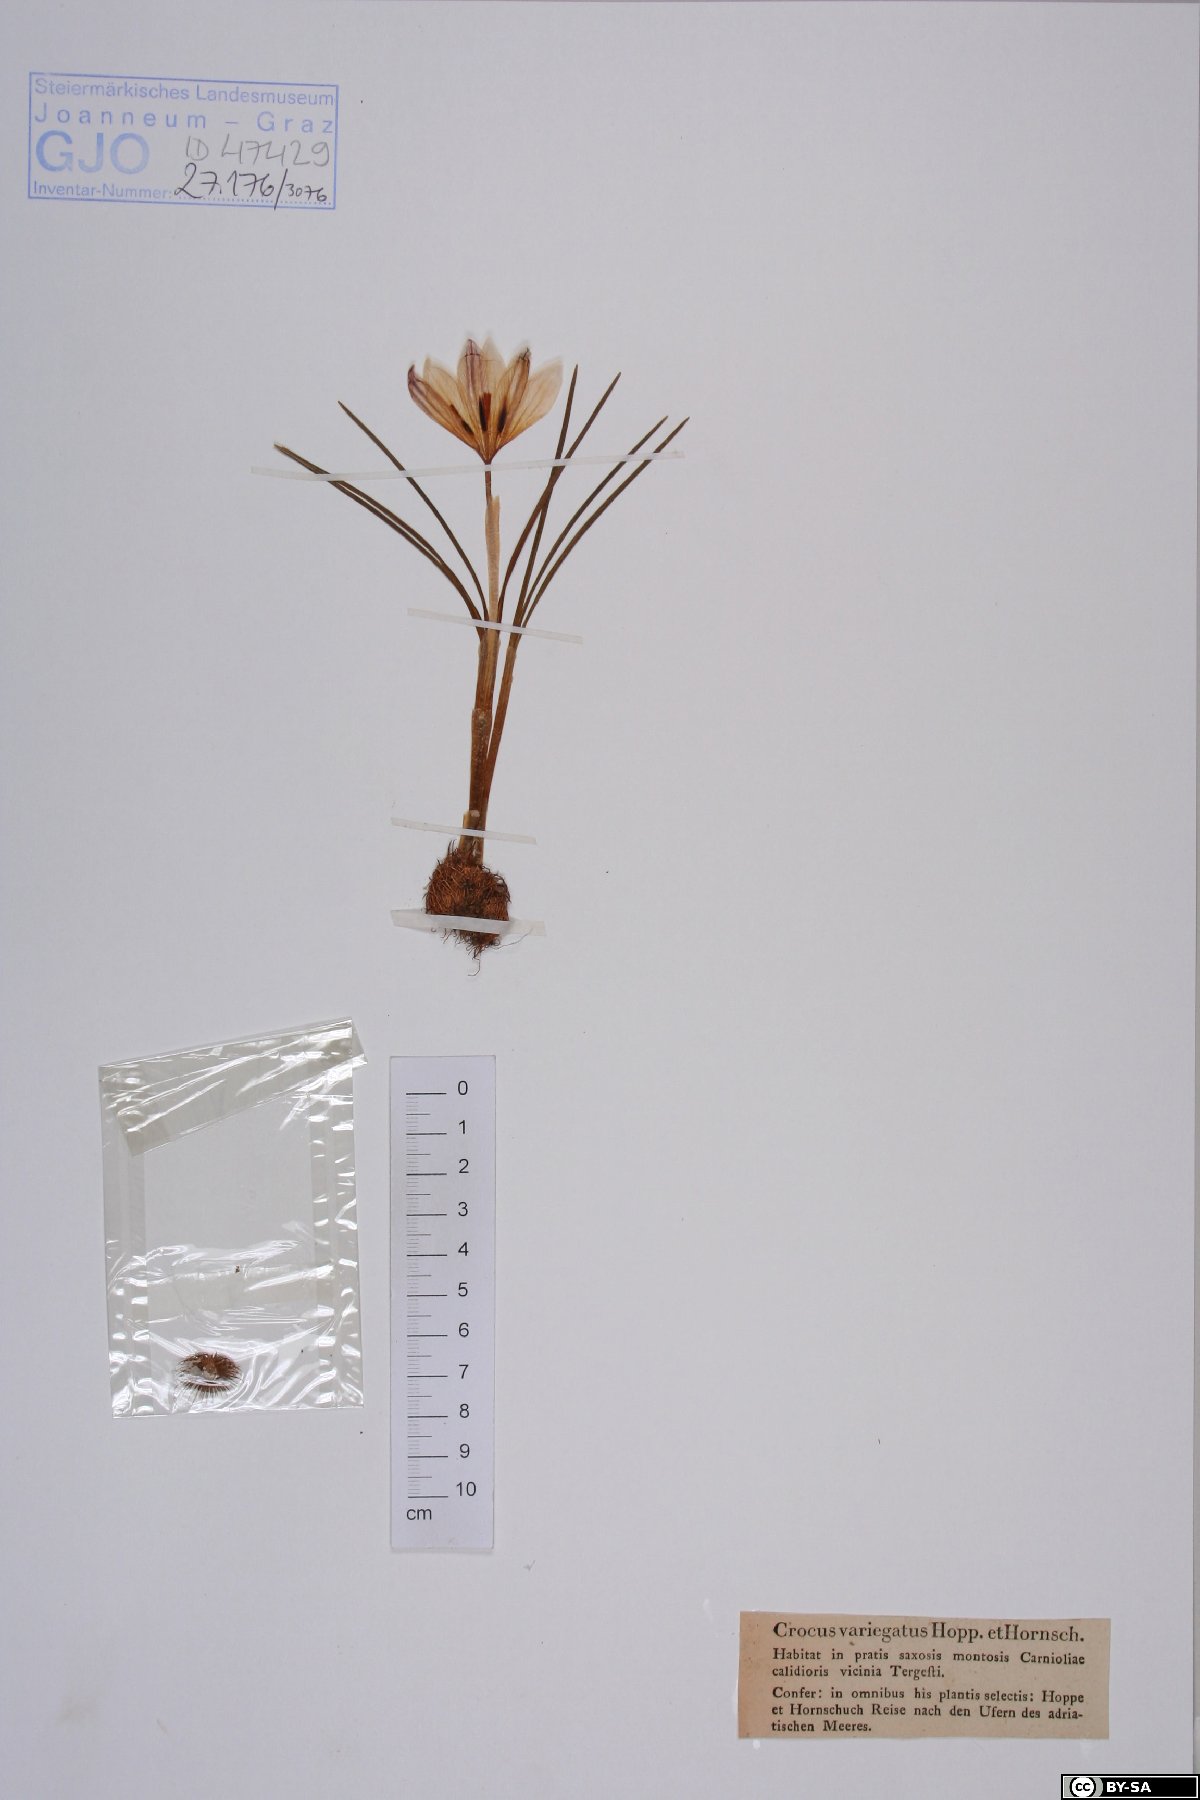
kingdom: Plantae
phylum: Tracheophyta
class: Liliopsida
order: Asparagales
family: Iridaceae
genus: Crocus
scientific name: Crocus variegatus
